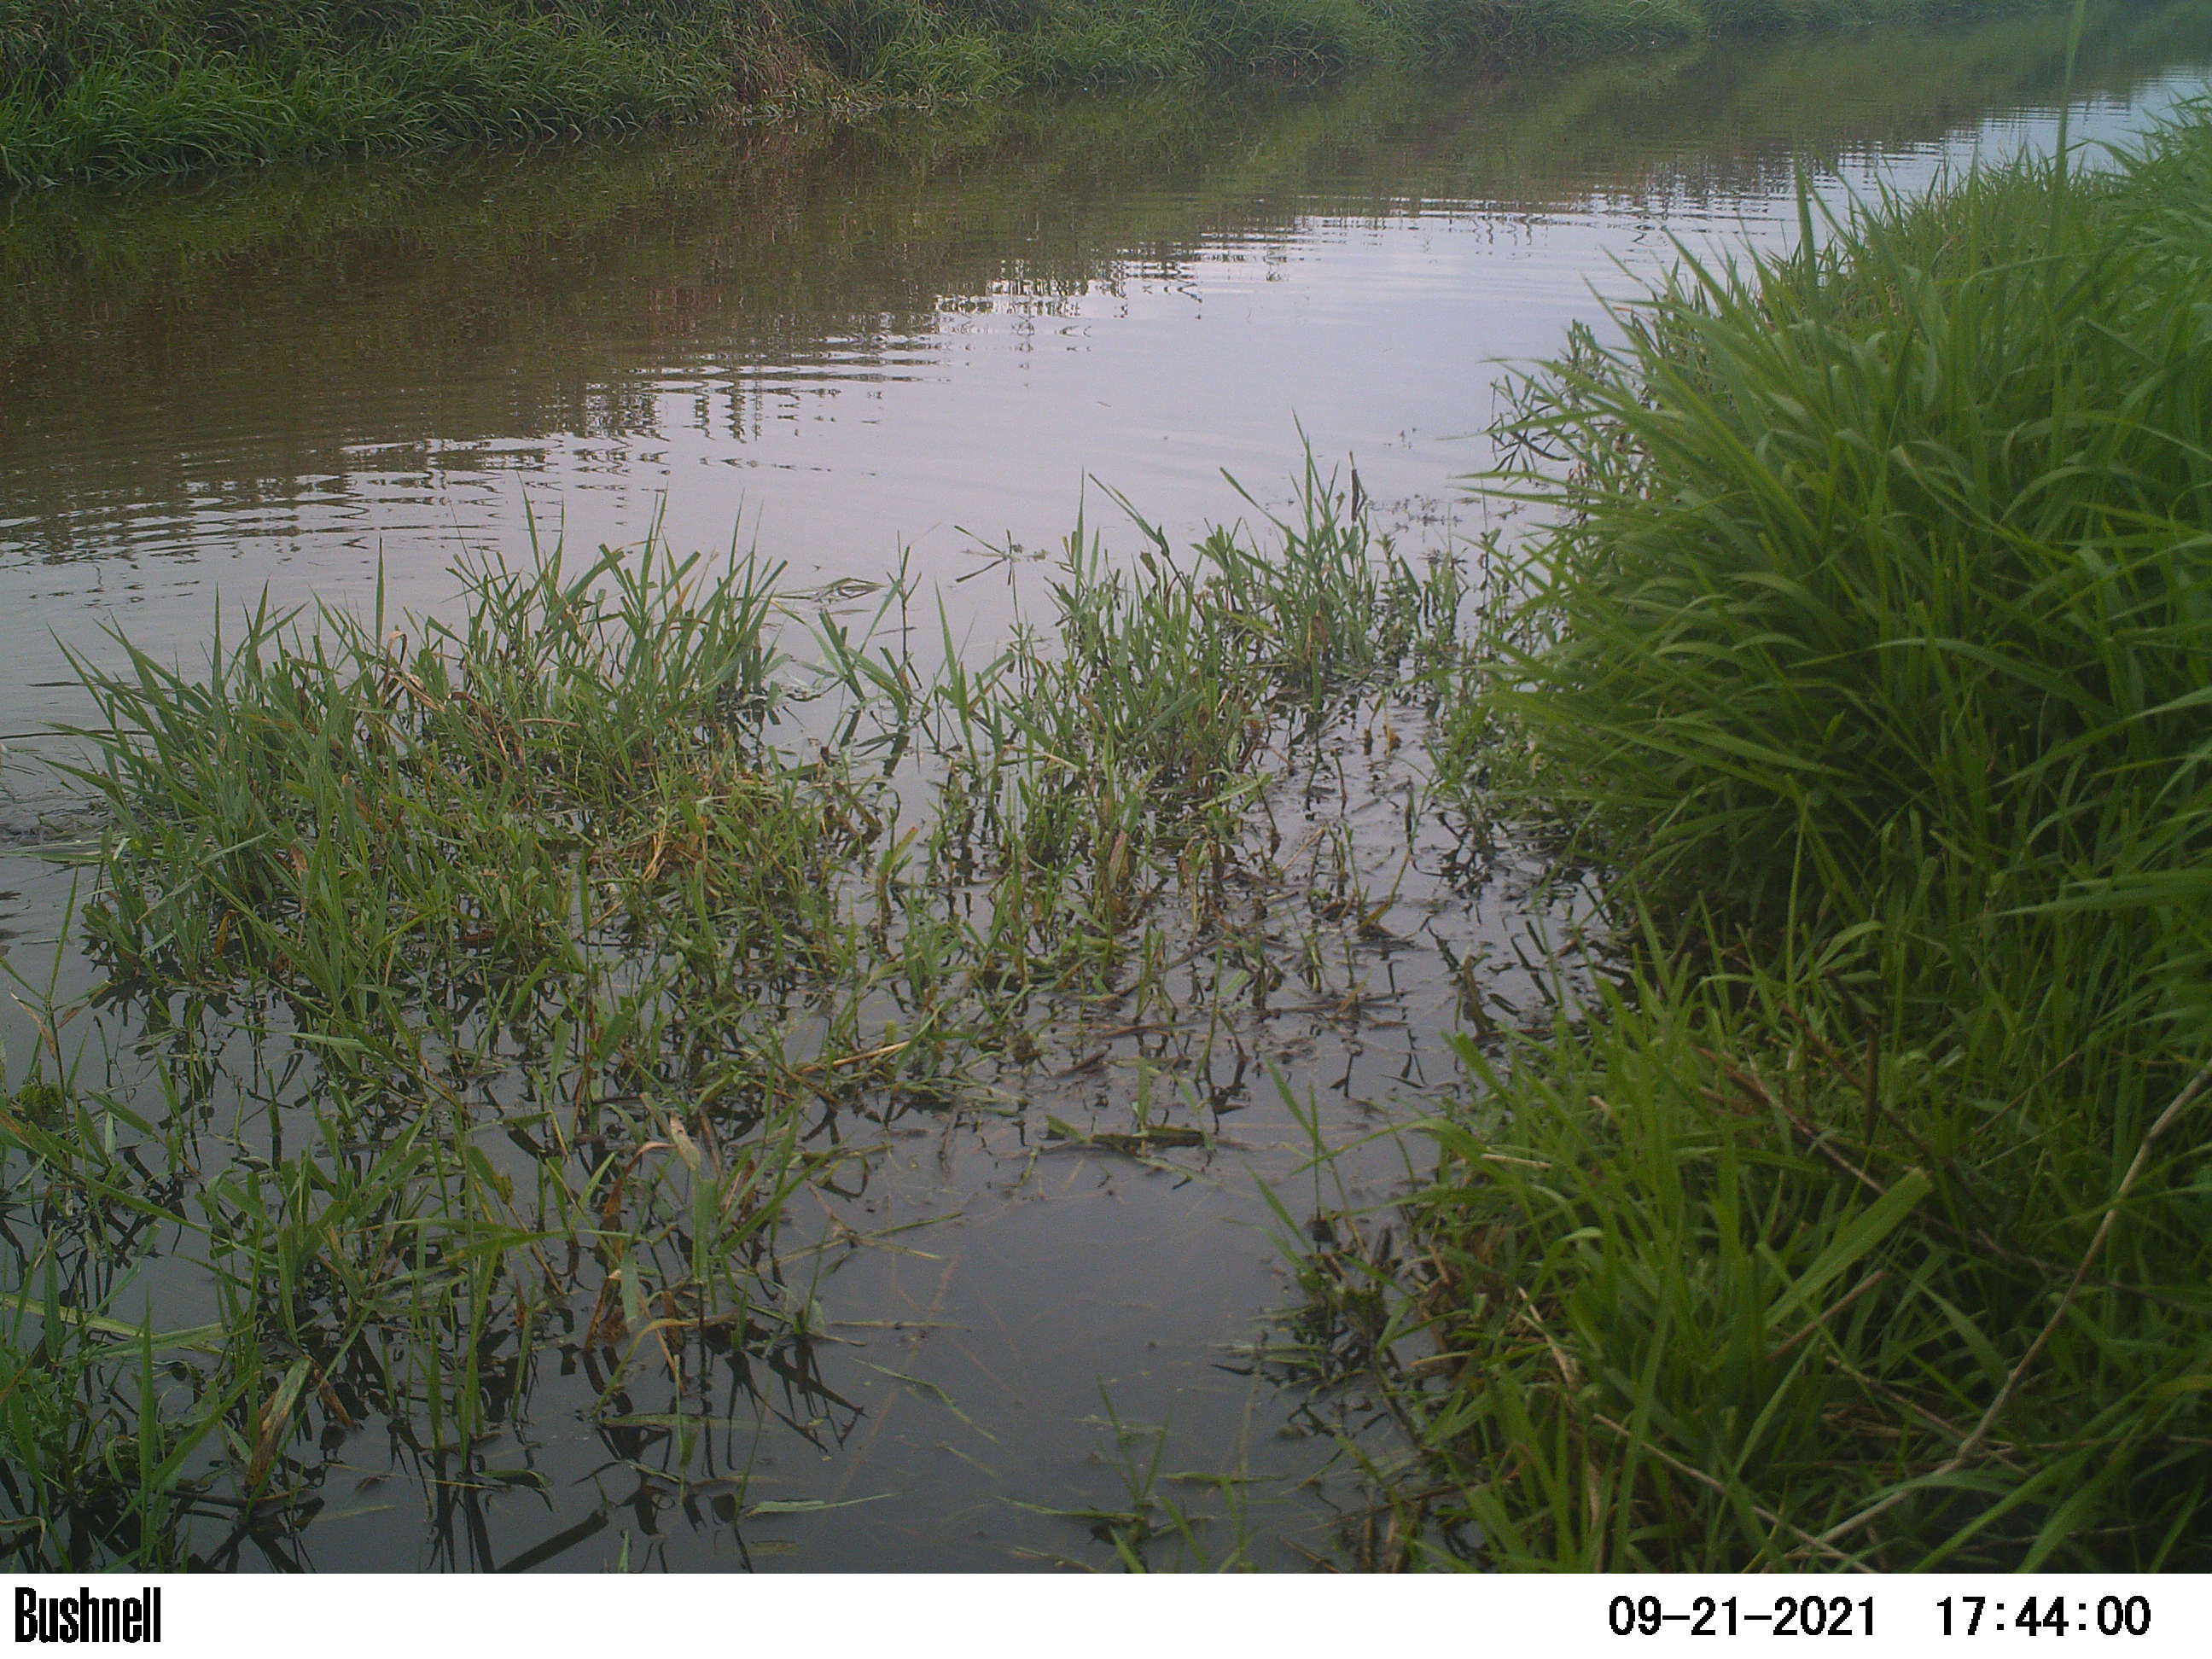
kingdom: Animalia
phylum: Chordata
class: Aves
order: Gruiformes
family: Rallidae
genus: Fulica
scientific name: Fulica atra
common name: Eurasian coot
